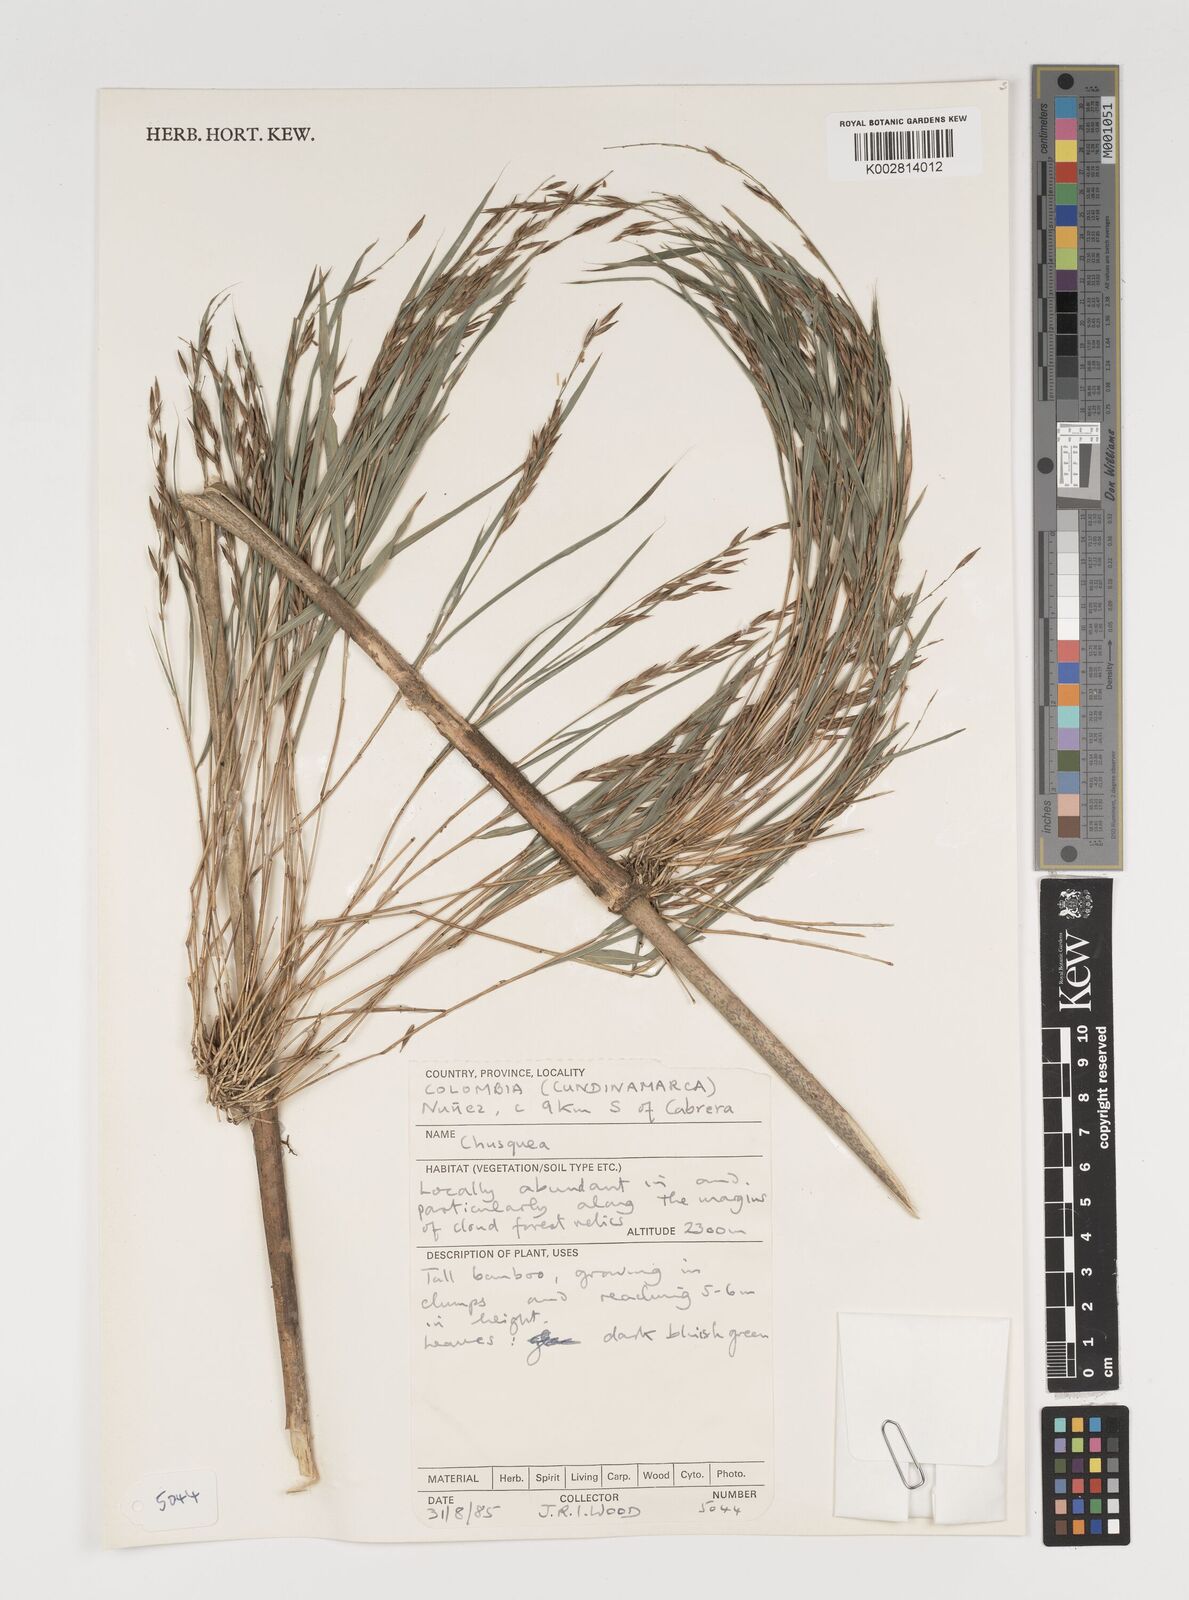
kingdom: Plantae
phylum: Tracheophyta
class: Liliopsida
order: Poales
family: Poaceae
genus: Chusquea
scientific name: Chusquea
